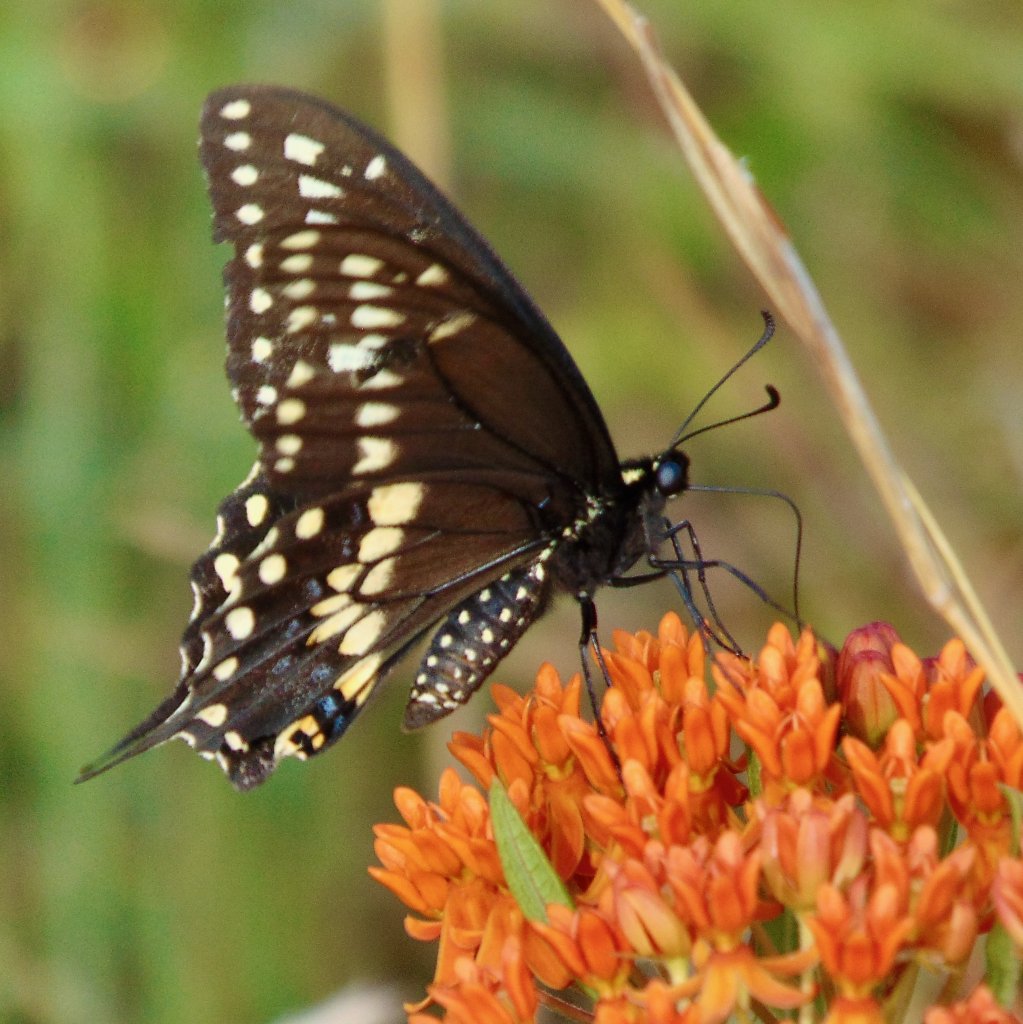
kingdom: Animalia
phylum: Arthropoda
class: Insecta
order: Lepidoptera
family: Papilionidae
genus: Papilio
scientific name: Papilio polyxenes
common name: Black Swallowtail
